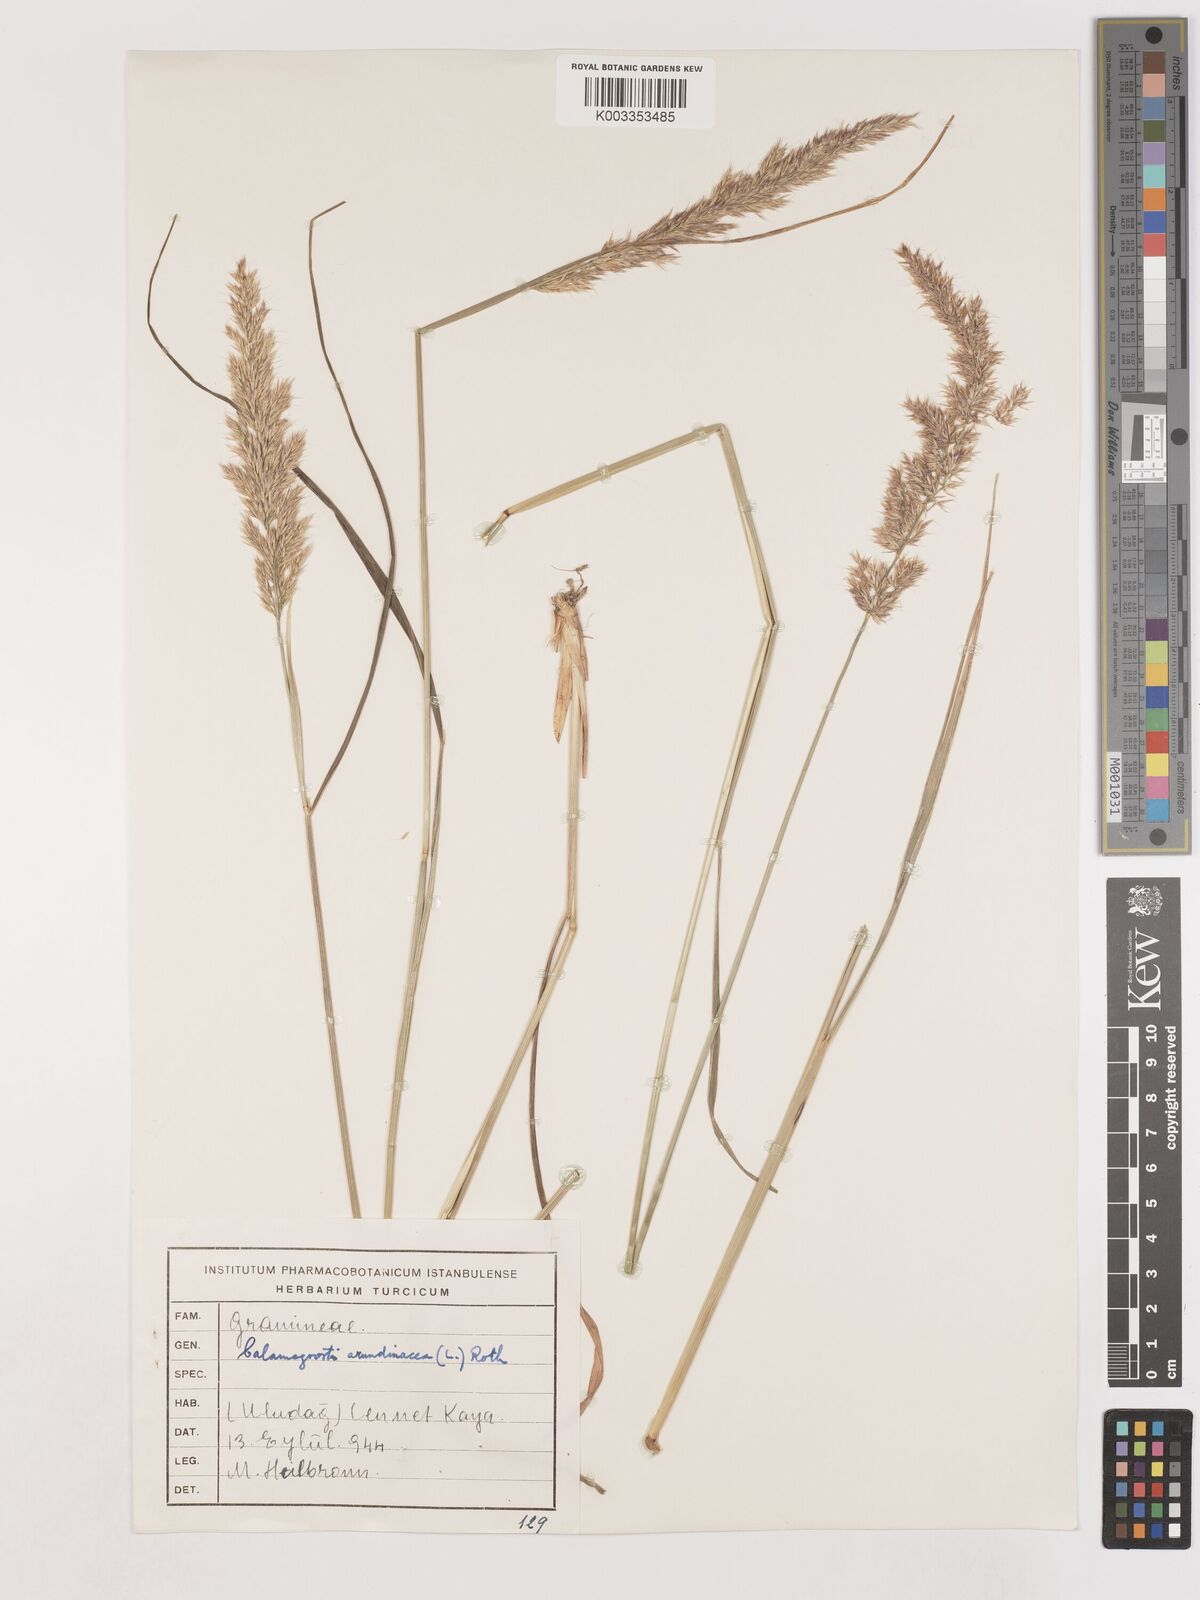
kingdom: Plantae
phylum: Tracheophyta
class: Liliopsida
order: Poales
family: Poaceae
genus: Calamagrostis
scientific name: Calamagrostis
